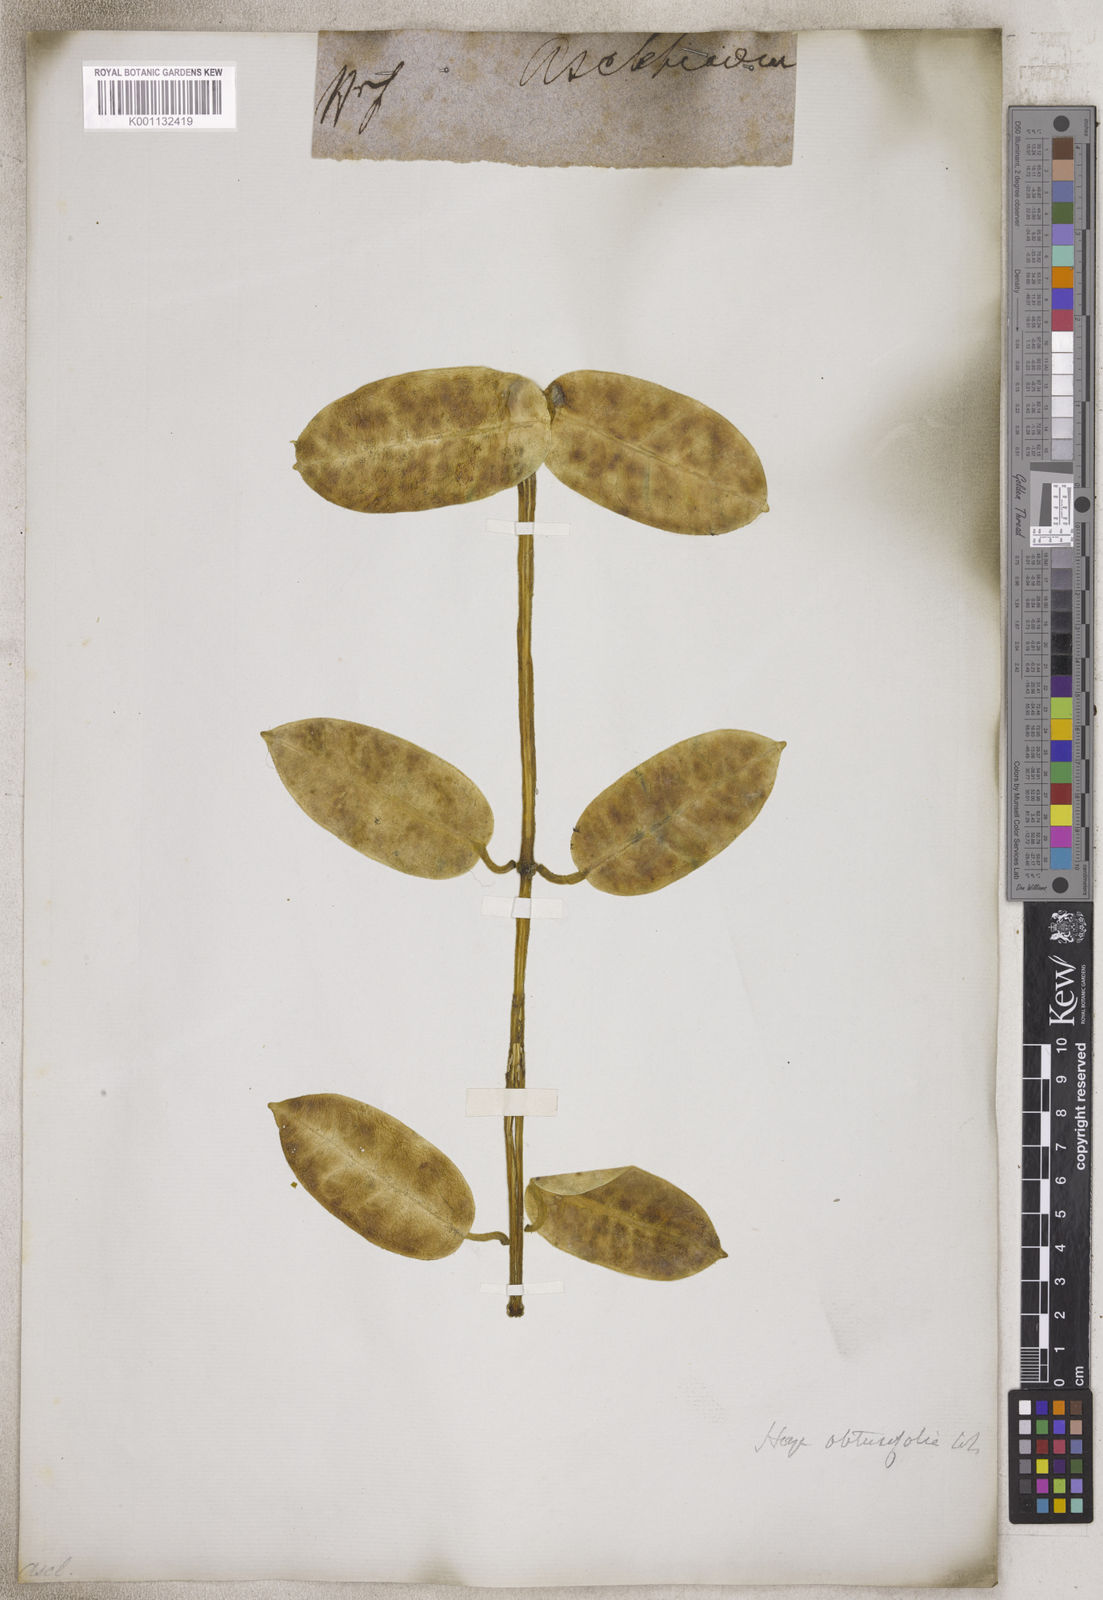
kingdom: Plantae
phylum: Tracheophyta
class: Magnoliopsida
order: Gentianales
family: Apocynaceae
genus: Hoya
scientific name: Hoya
